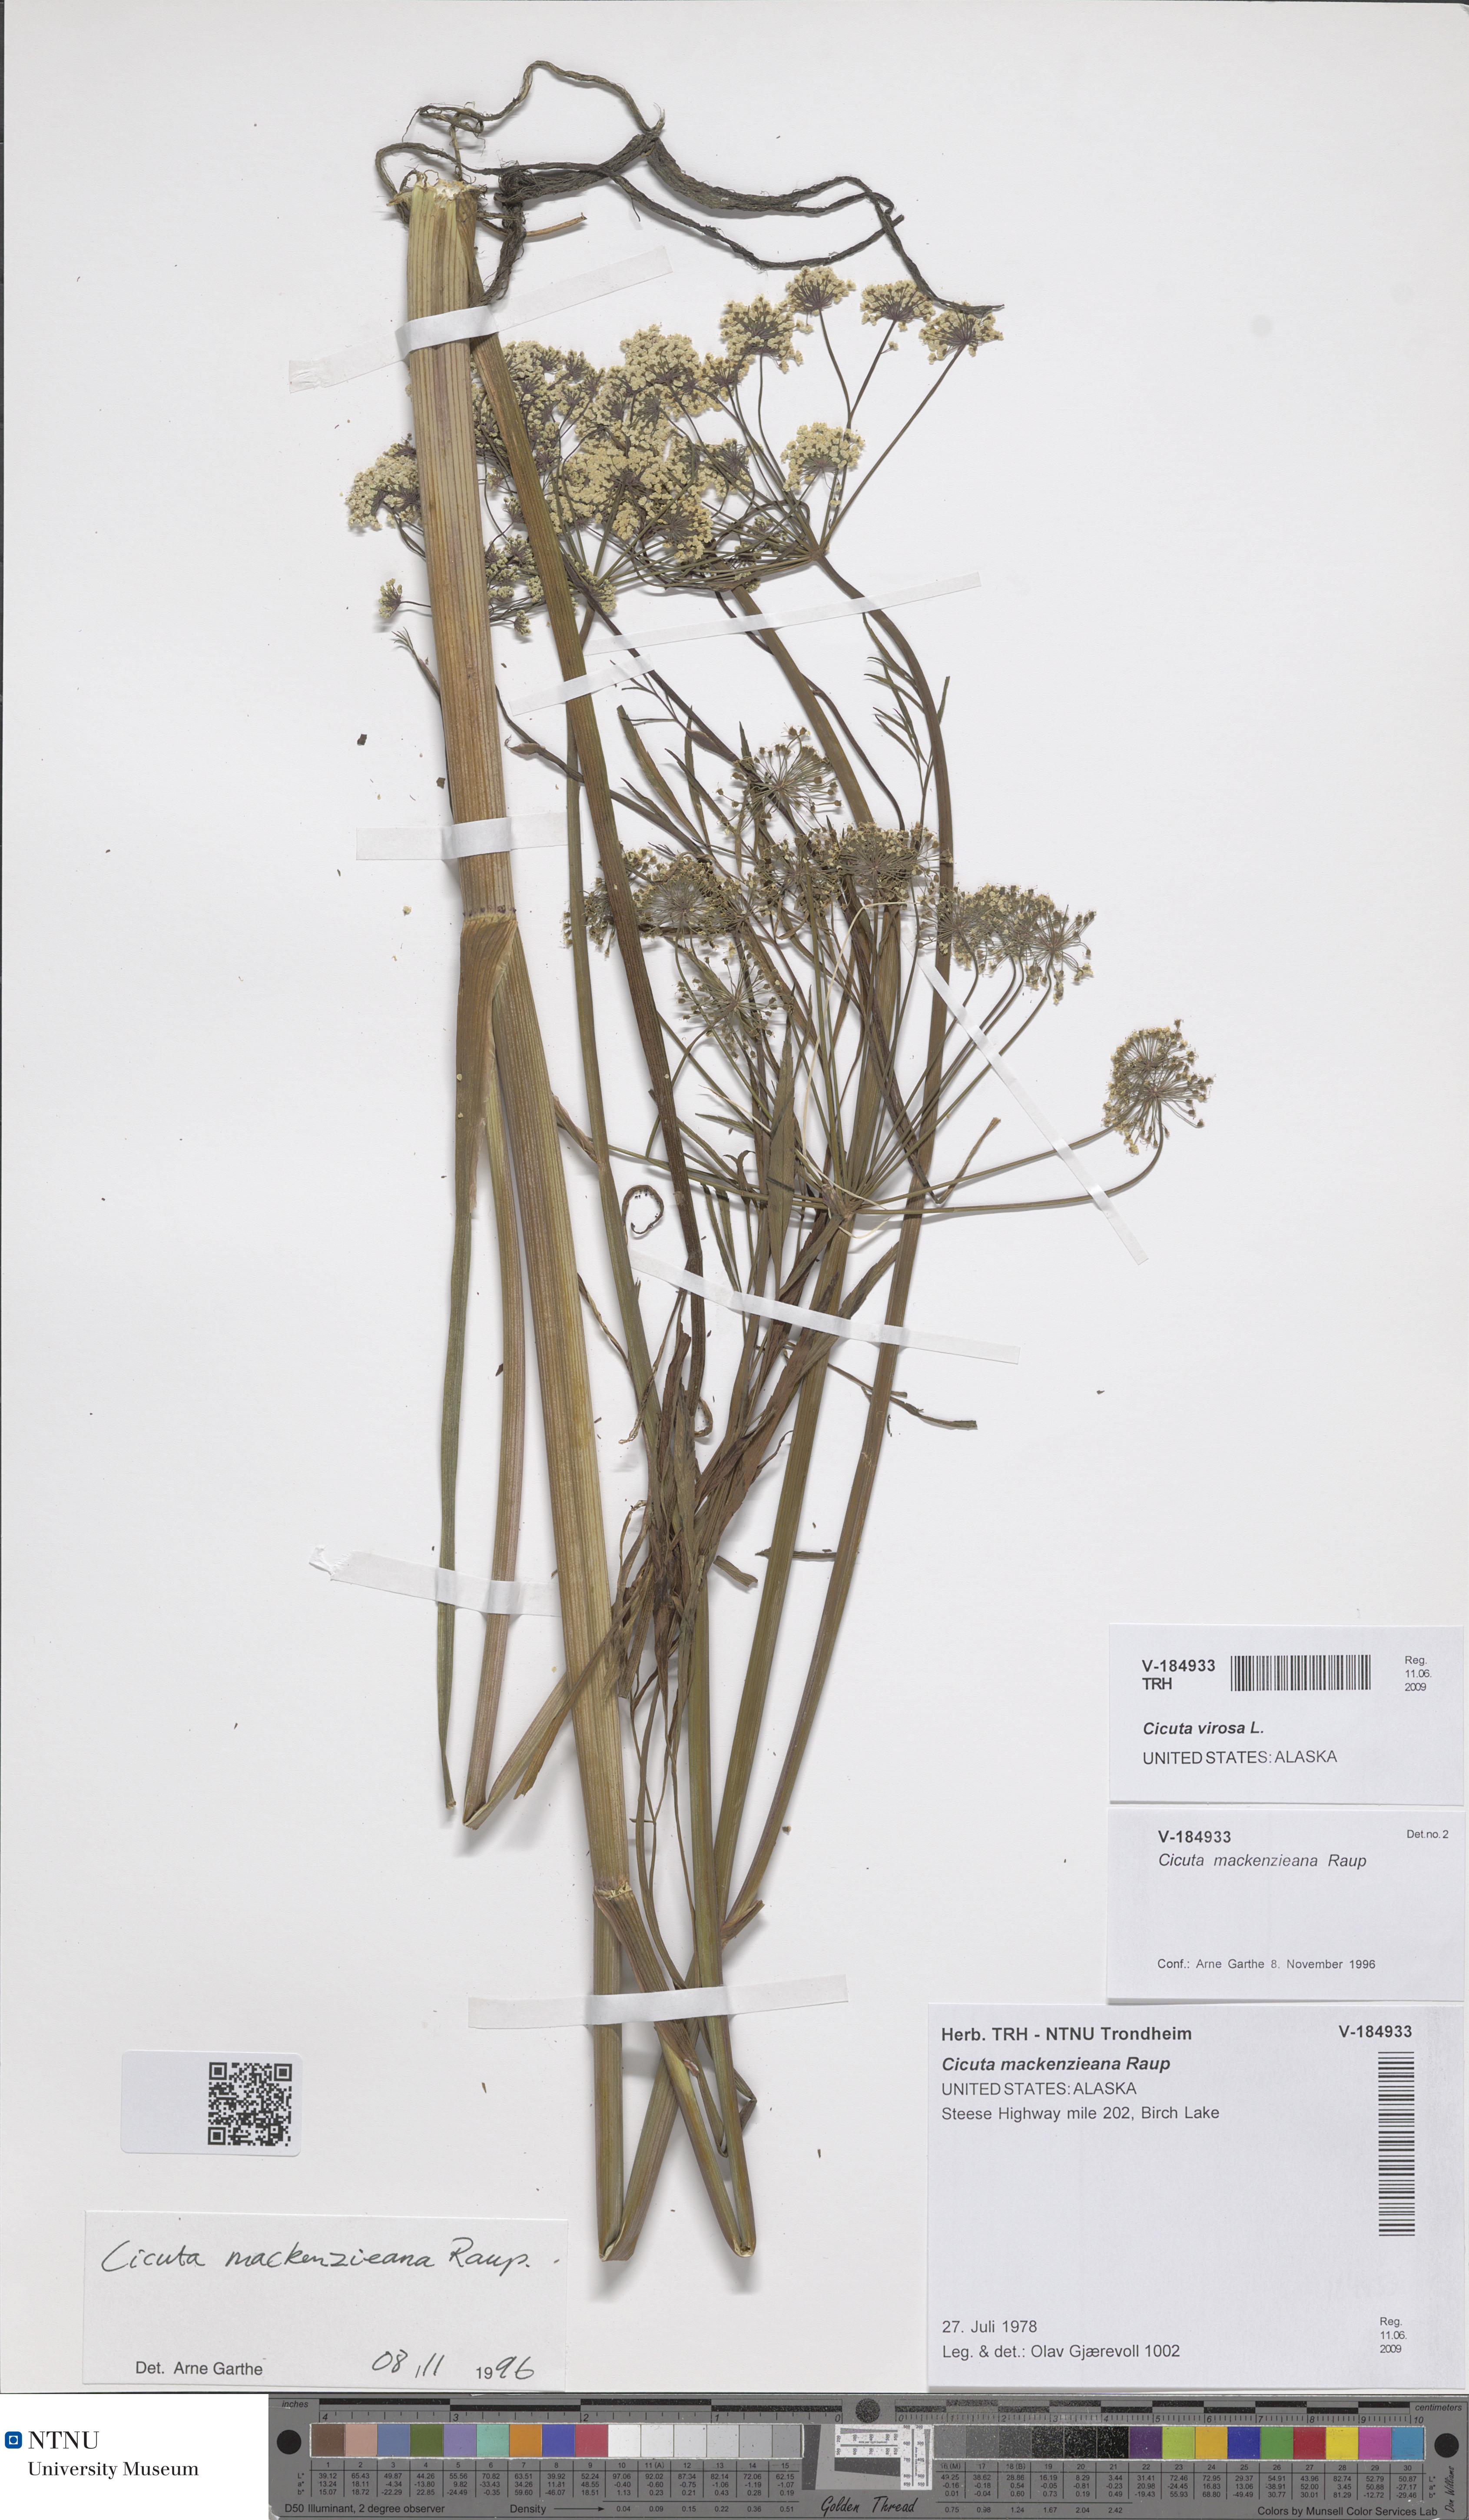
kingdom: Plantae
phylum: Tracheophyta
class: Magnoliopsida
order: Apiales
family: Apiaceae
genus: Cicuta
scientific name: Cicuta virosa
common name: Cowbane
